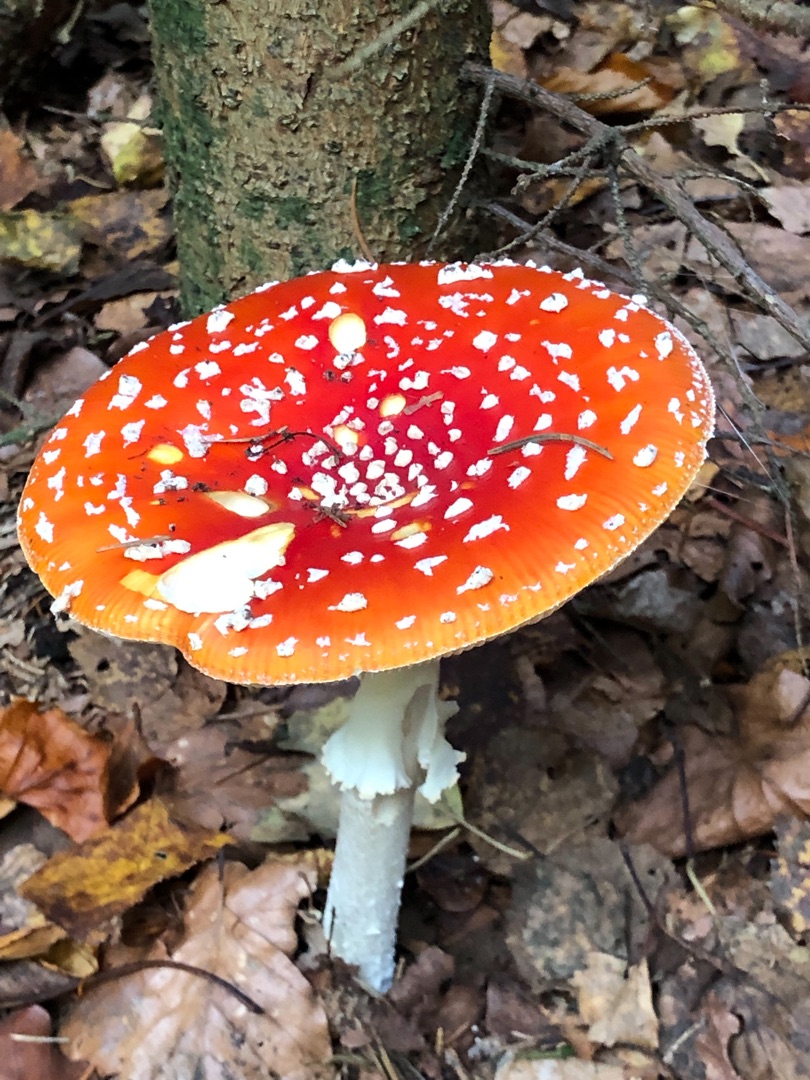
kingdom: Fungi
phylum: Basidiomycota
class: Agaricomycetes
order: Agaricales
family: Amanitaceae
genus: Amanita
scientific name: Amanita muscaria
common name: Rød fluesvamp
